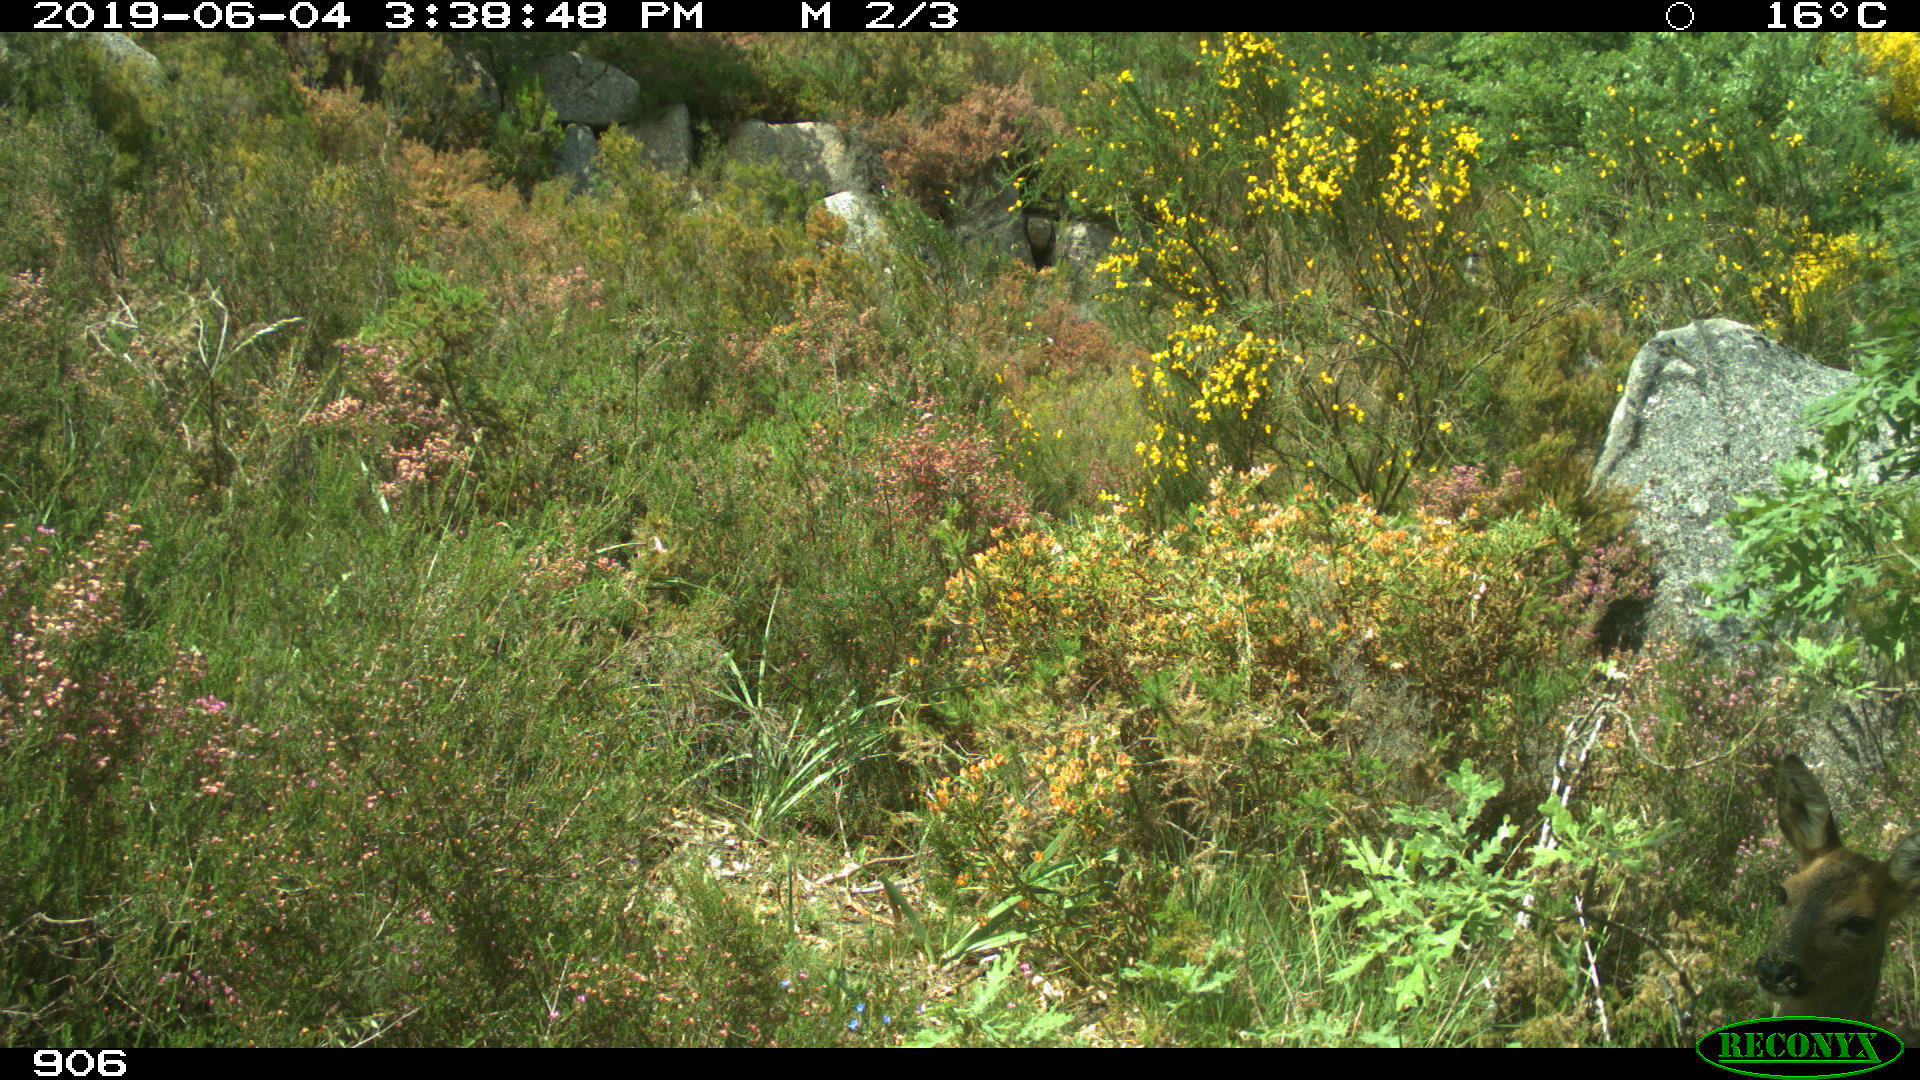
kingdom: Animalia
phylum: Chordata
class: Mammalia
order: Artiodactyla
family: Cervidae
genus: Capreolus
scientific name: Capreolus capreolus
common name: Western roe deer
